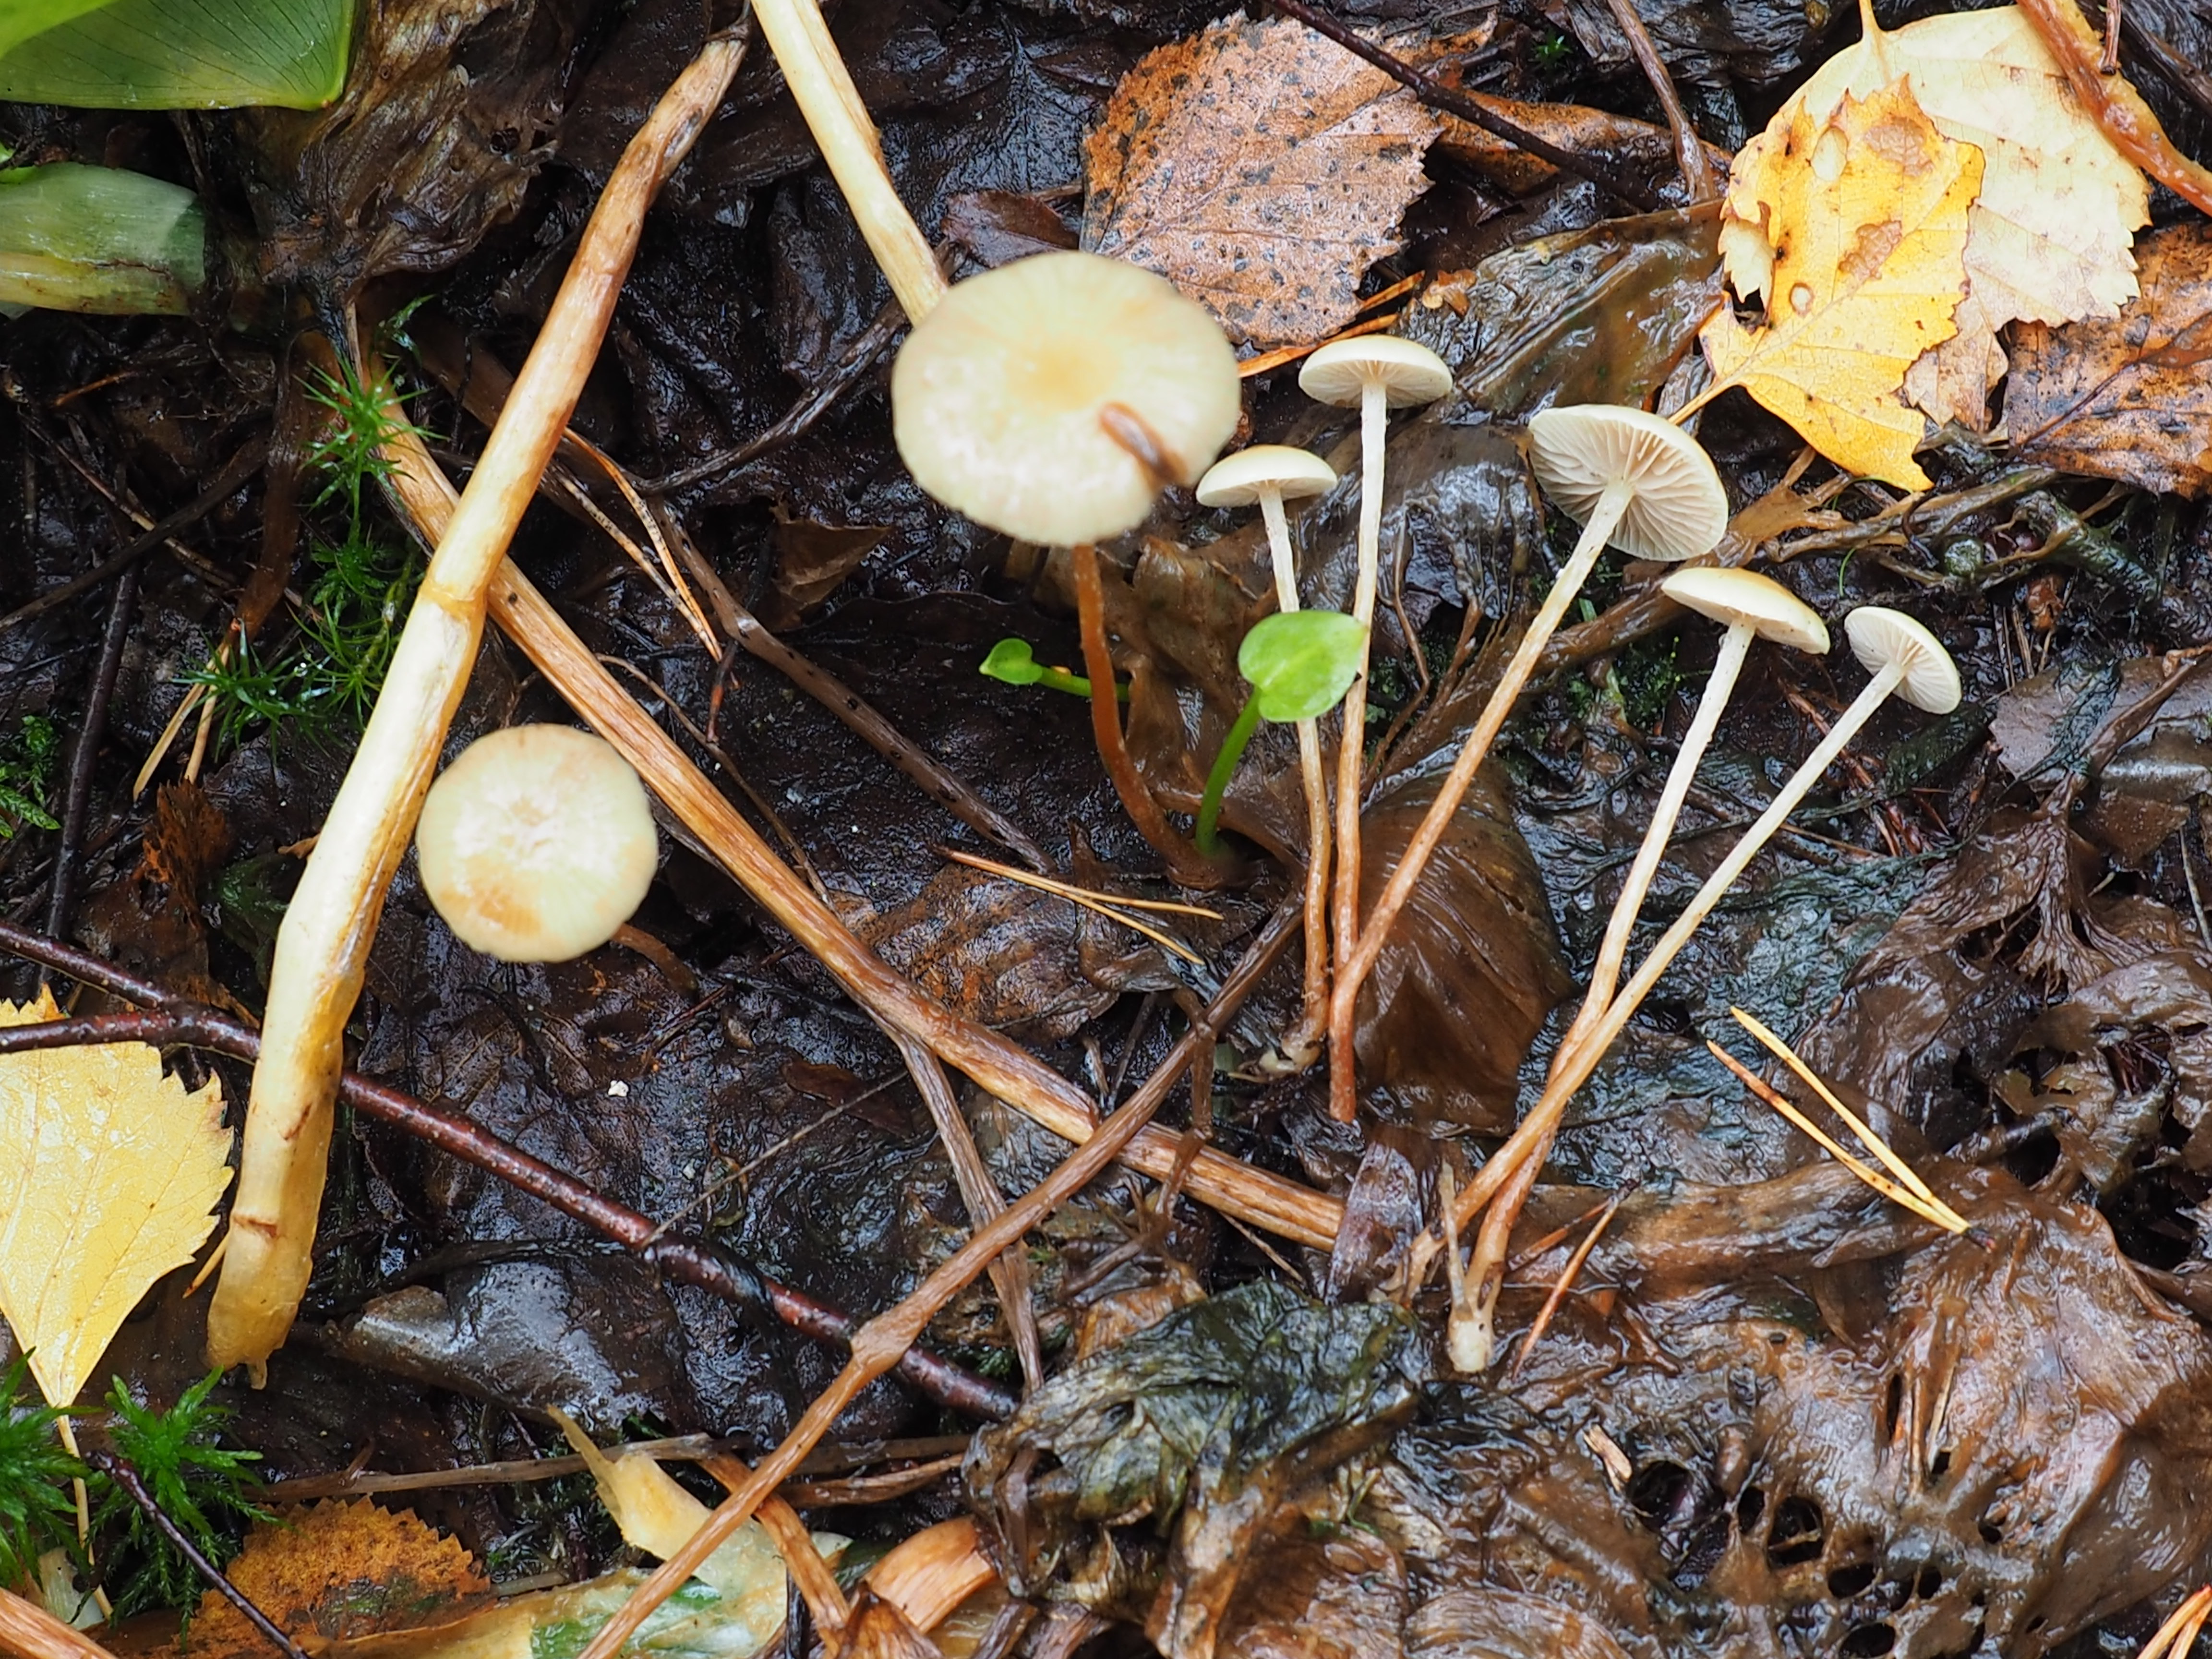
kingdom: Fungi
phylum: Basidiomycota
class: Agaricomycetes
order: Agaricales
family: Strophariaceae
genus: Hypholoma
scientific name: Hypholoma elongatum
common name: Sphagnum brownie
